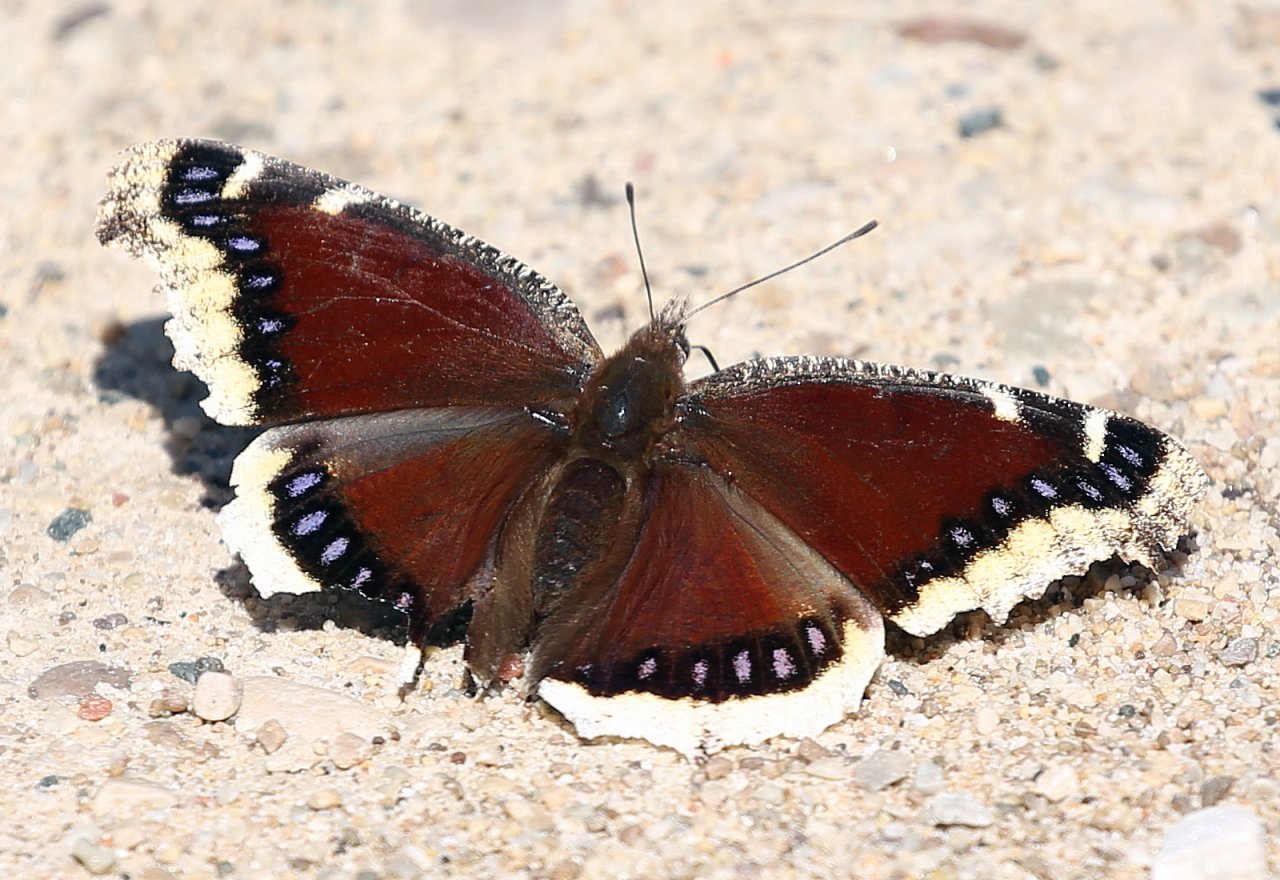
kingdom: Animalia
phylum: Arthropoda
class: Insecta
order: Lepidoptera
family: Nymphalidae
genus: Nymphalis
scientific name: Nymphalis antiopa
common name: Mourning Cloak
